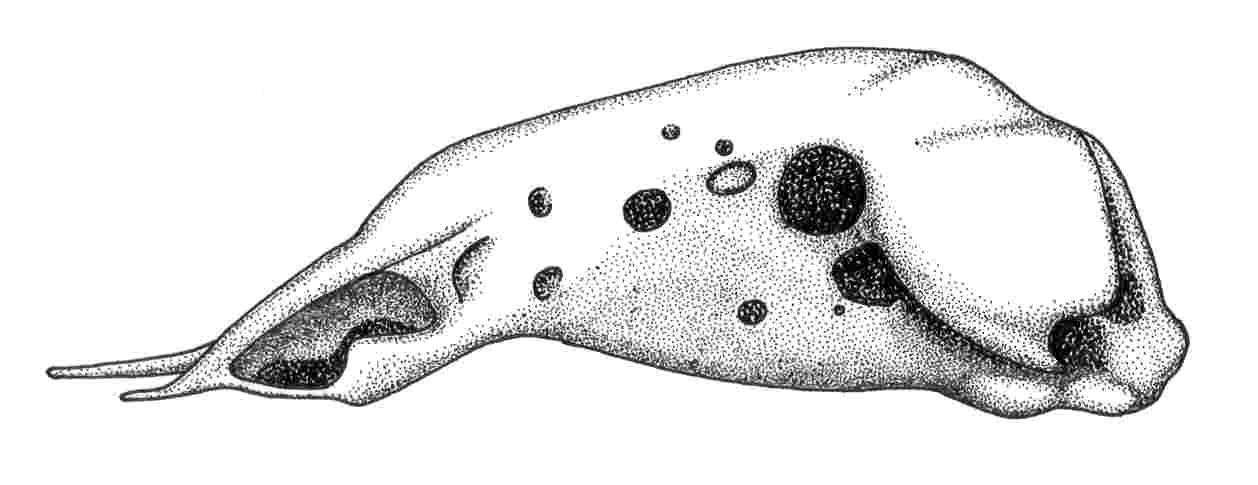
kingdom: Animalia
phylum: Chordata
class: Elasmobranchii
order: Torpediniformes
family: Narkidae
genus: Narke
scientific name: Narke capensis
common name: Onefin electric ray
